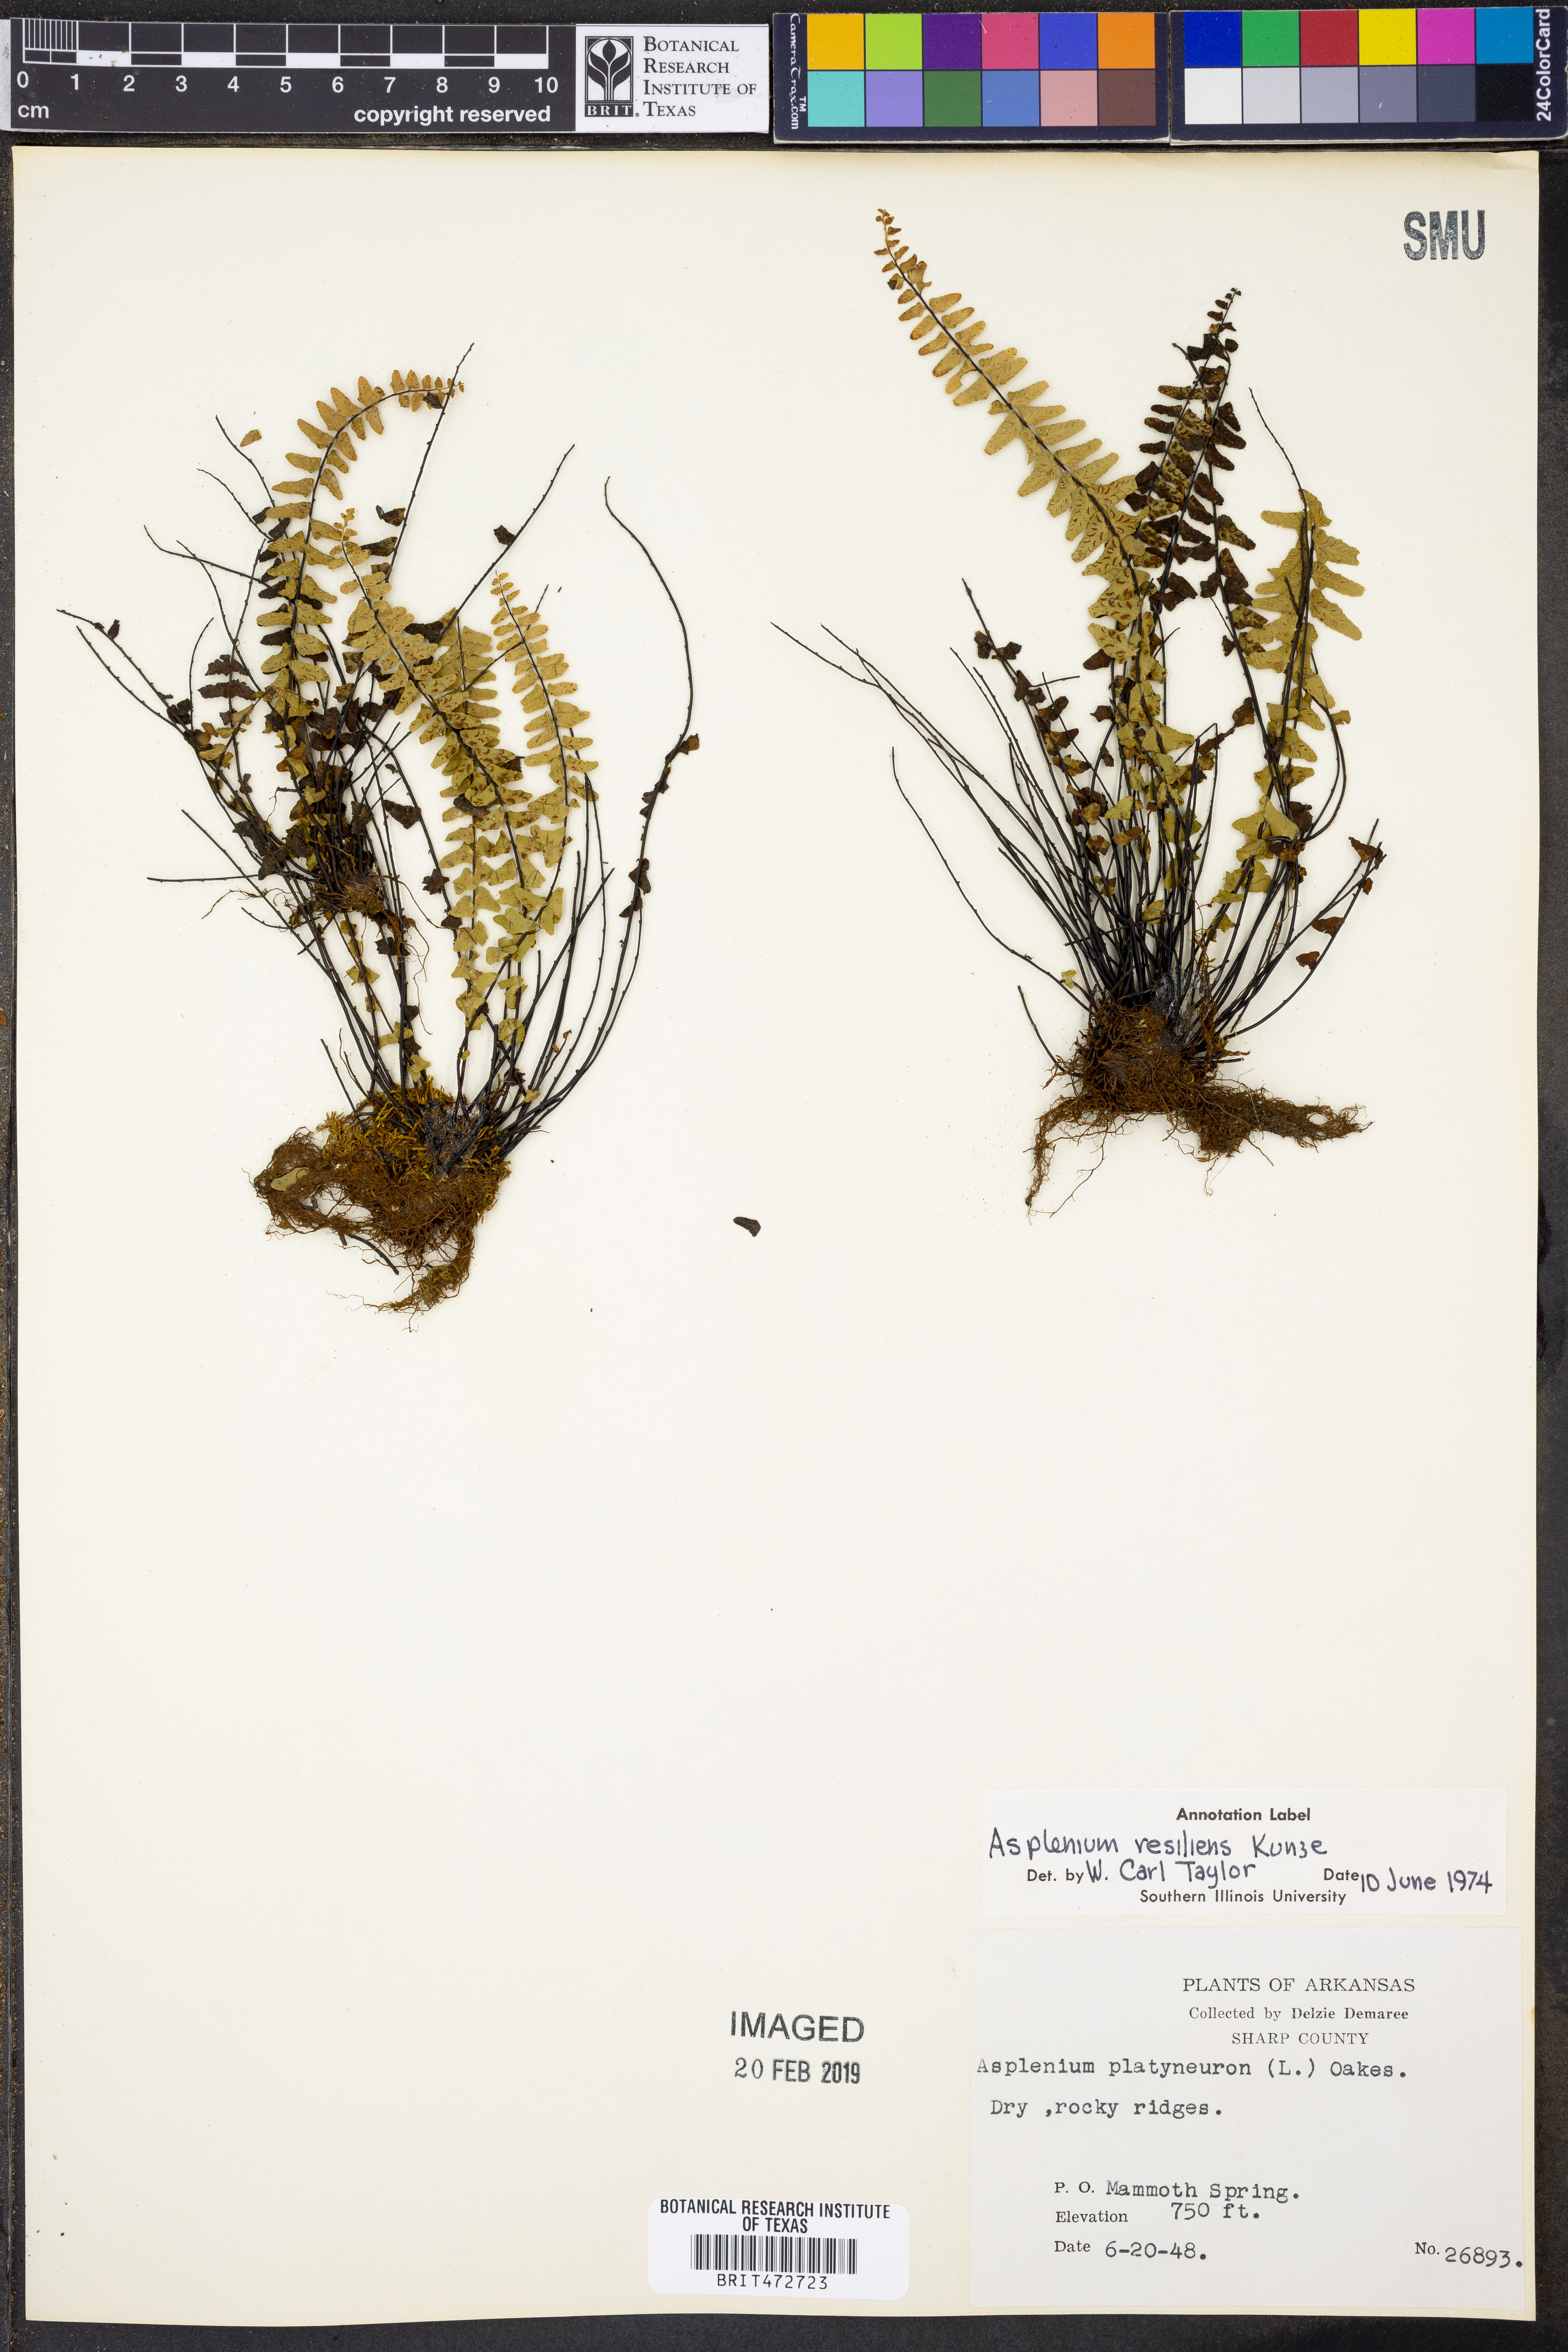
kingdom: Plantae
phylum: Tracheophyta
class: Polypodiopsida
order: Polypodiales
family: Aspleniaceae
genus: Asplenium
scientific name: Asplenium resiliens
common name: Blackstem spleenwort
